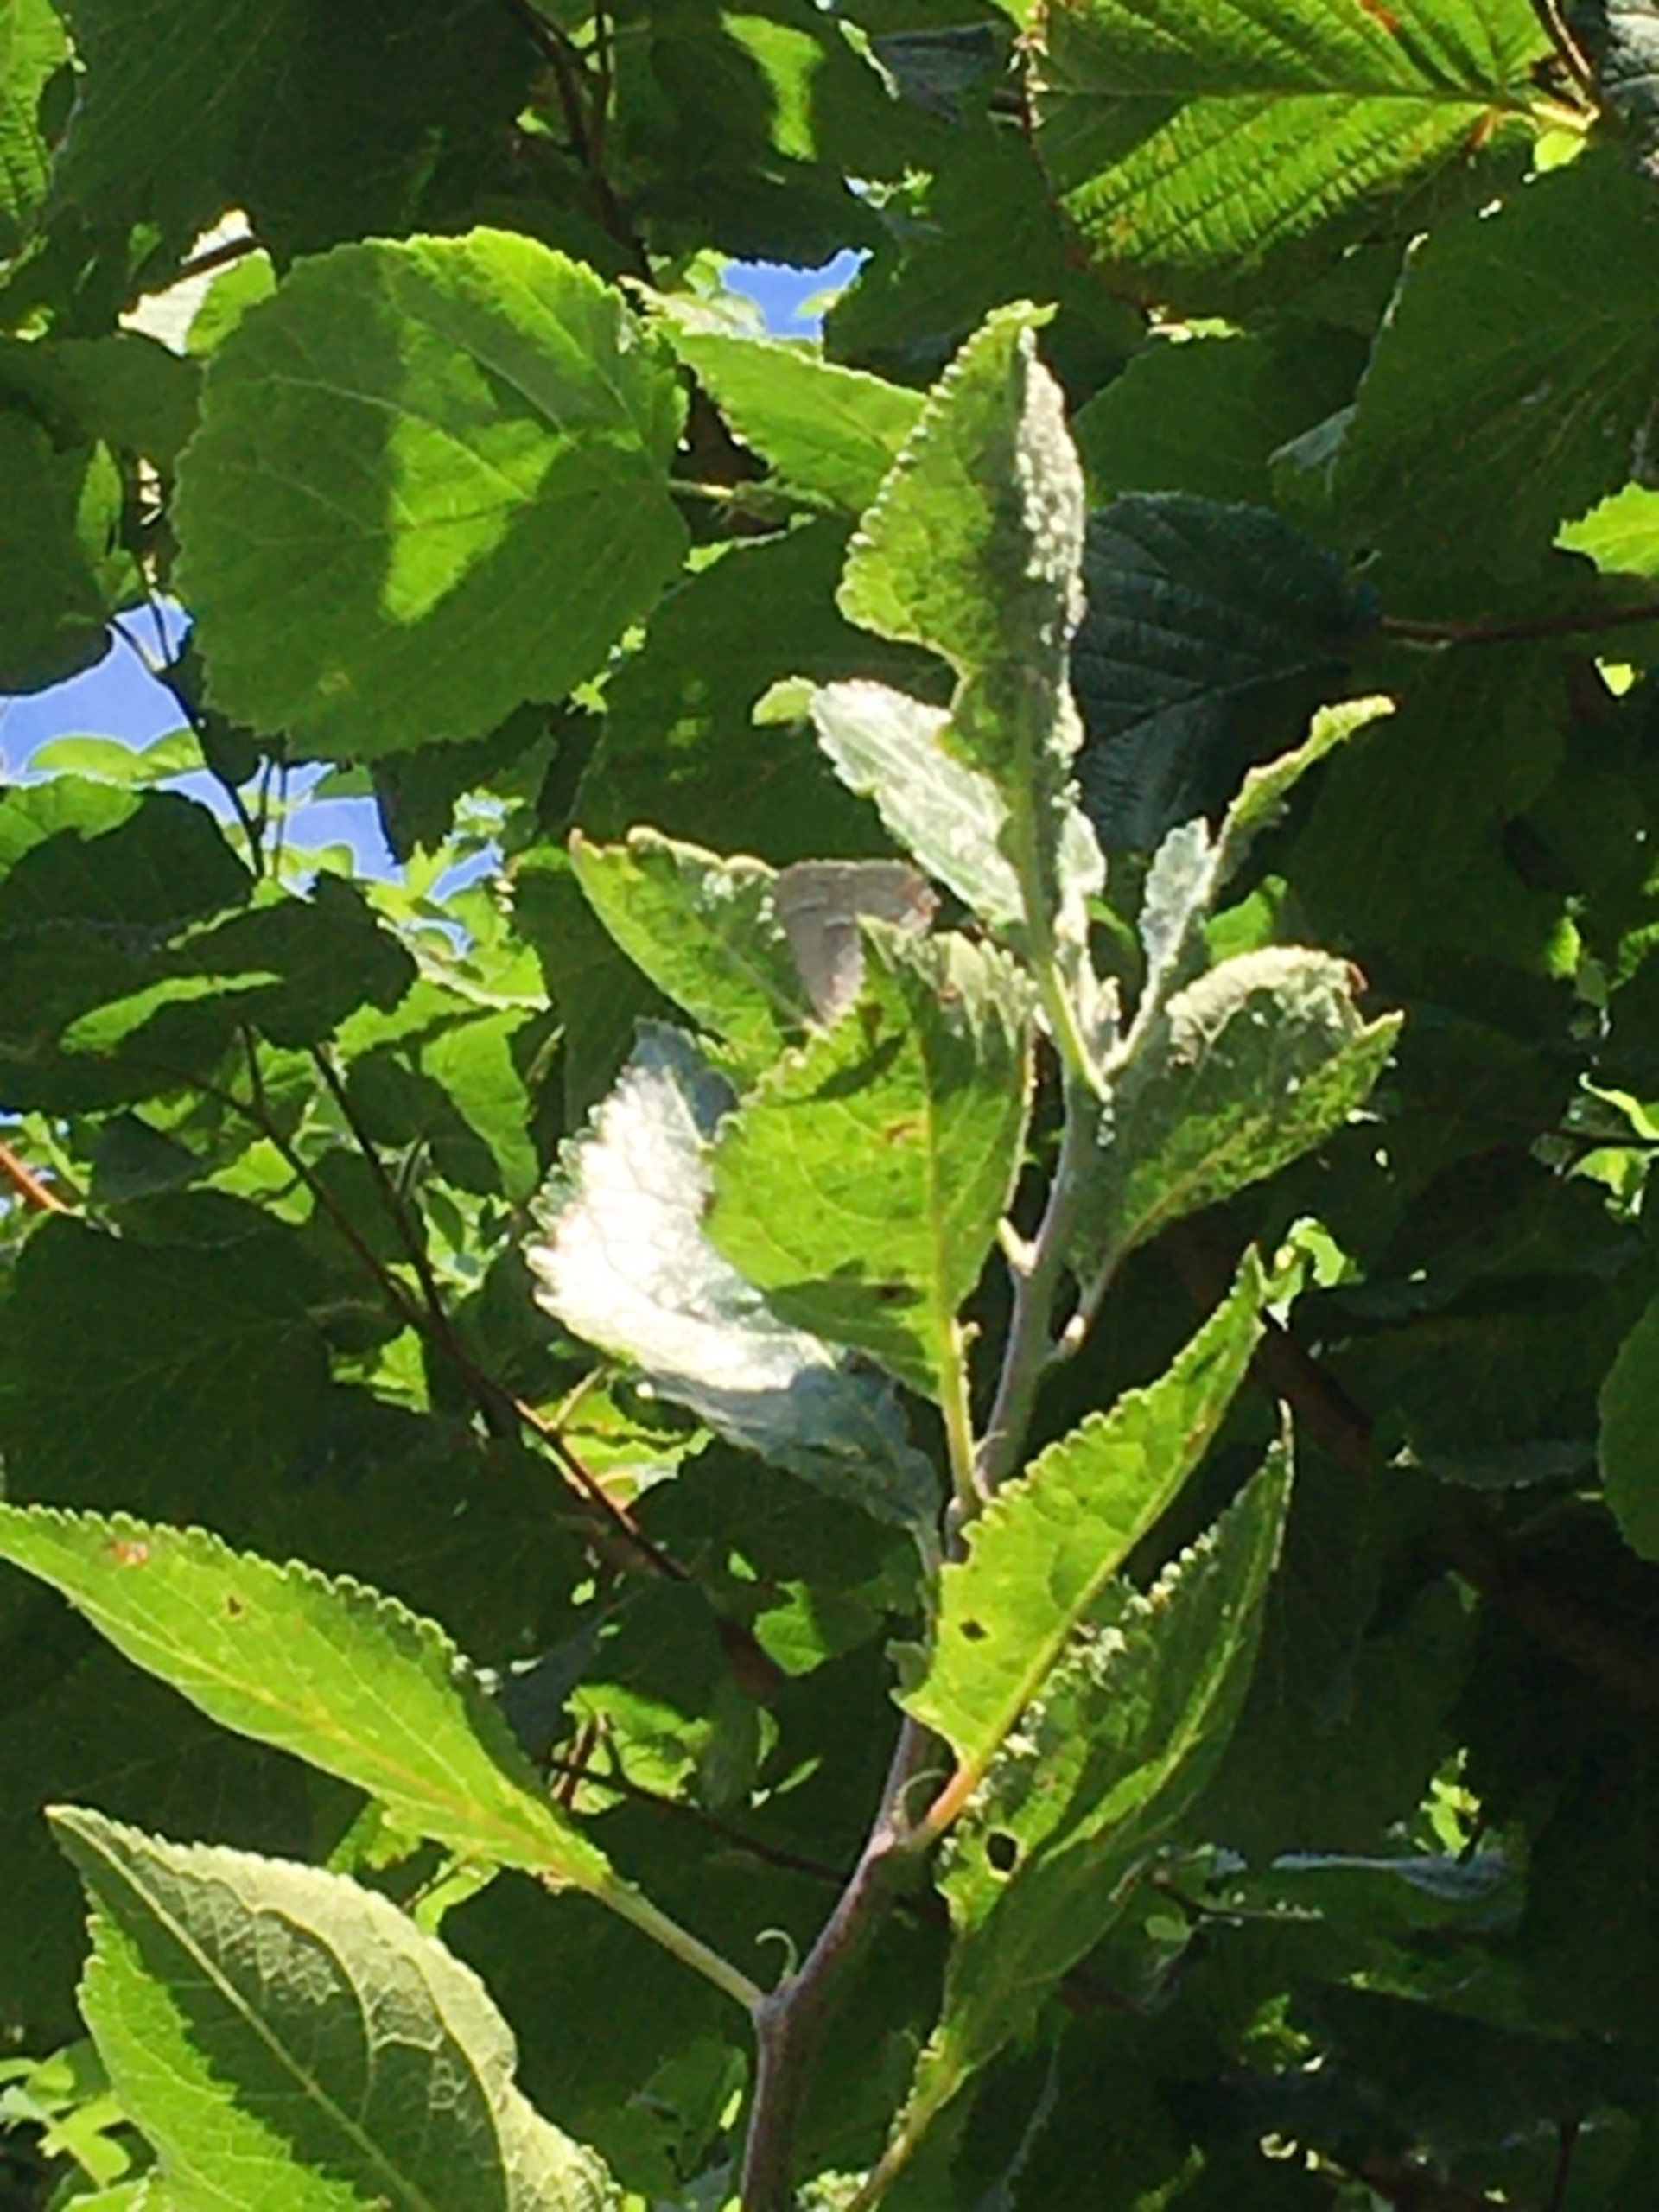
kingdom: Animalia
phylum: Arthropoda
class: Insecta
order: Lepidoptera
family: Lycaenidae
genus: Quercusia
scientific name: Quercusia quercus
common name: Blåhale
